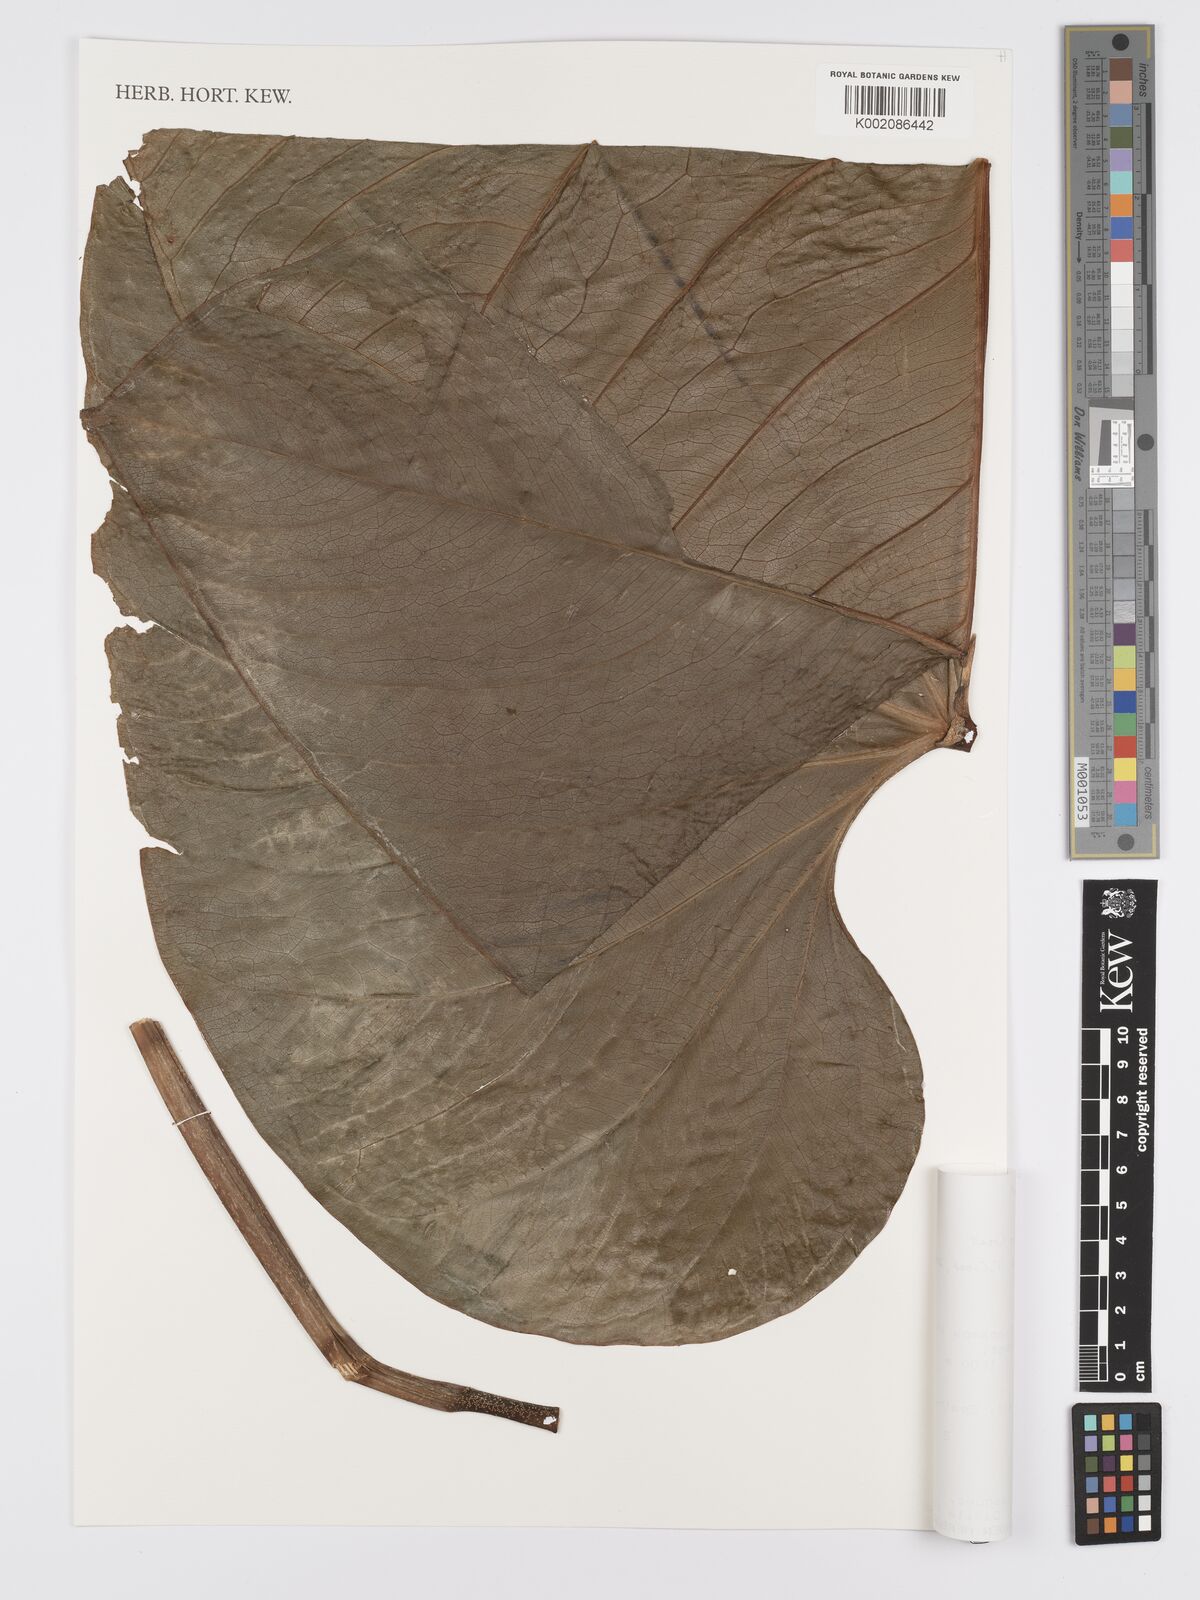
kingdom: Plantae
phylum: Tracheophyta
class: Liliopsida
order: Alismatales
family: Araceae
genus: Anthurium
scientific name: Anthurium
